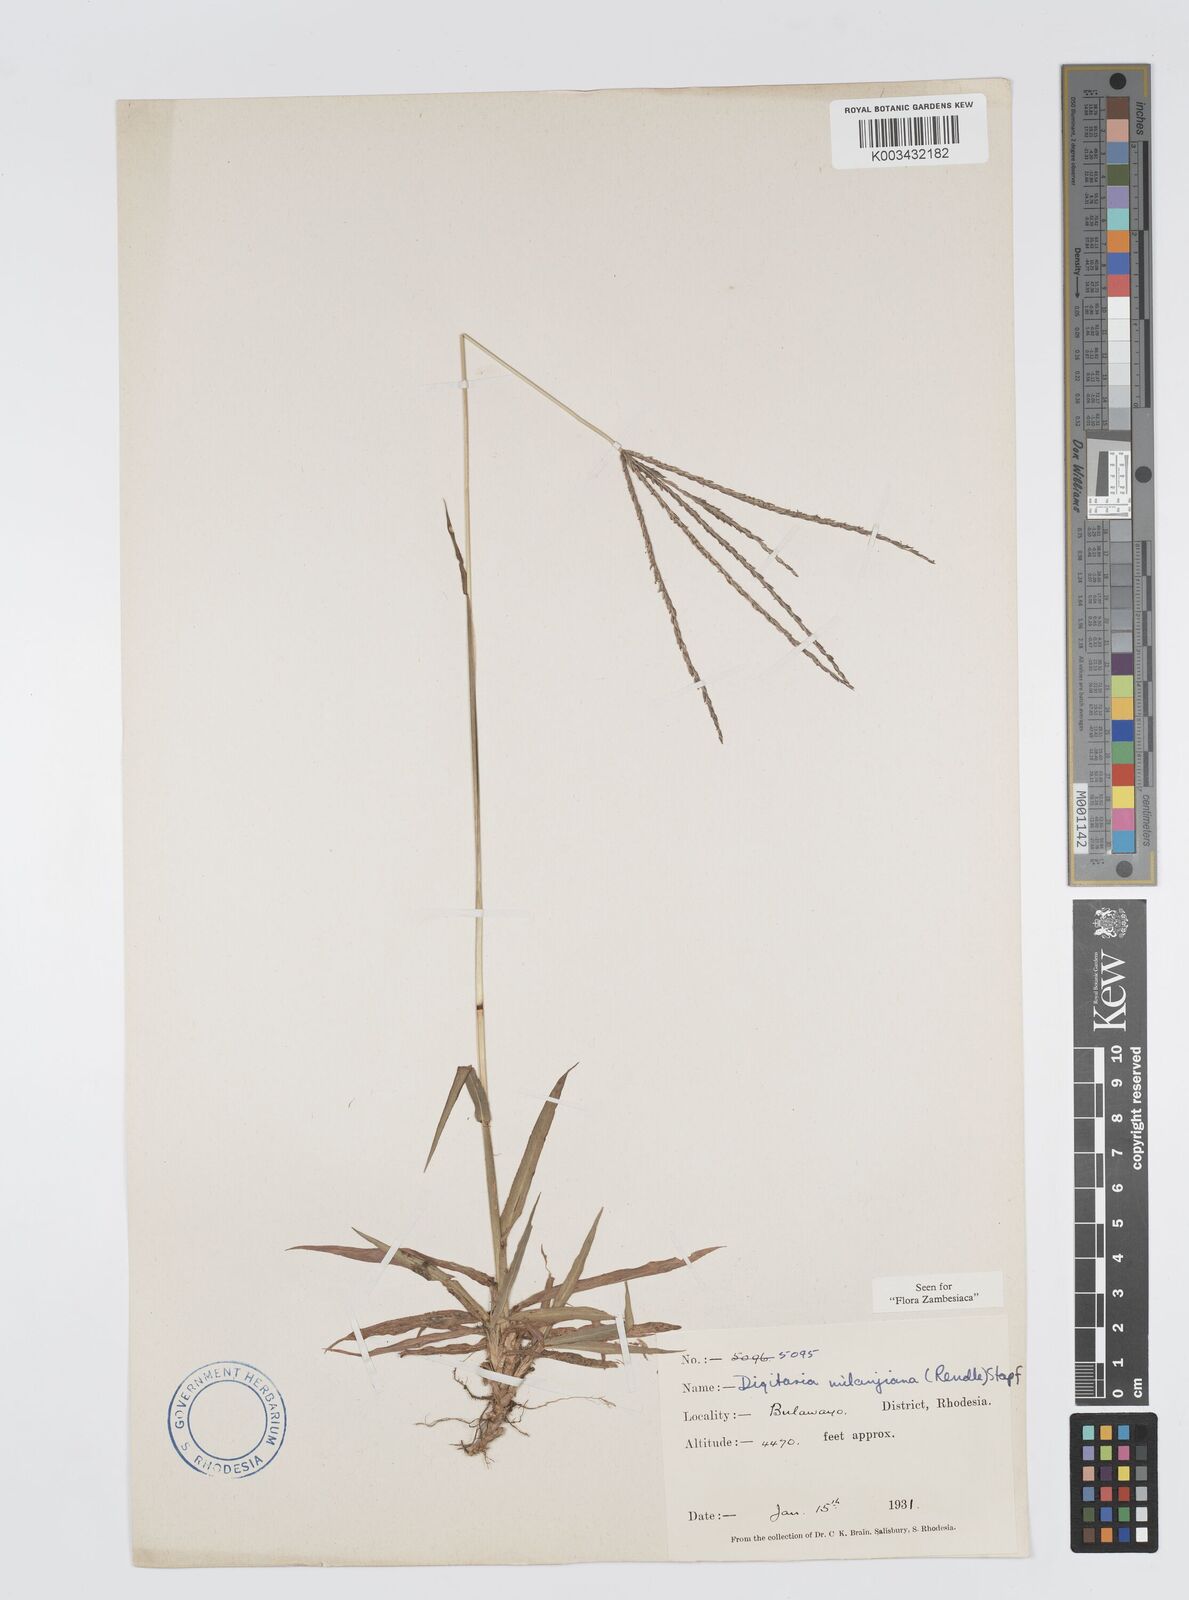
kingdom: Plantae
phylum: Tracheophyta
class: Liliopsida
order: Poales
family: Poaceae
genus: Digitaria
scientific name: Digitaria milanjiana
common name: Madagascar crabgrass
